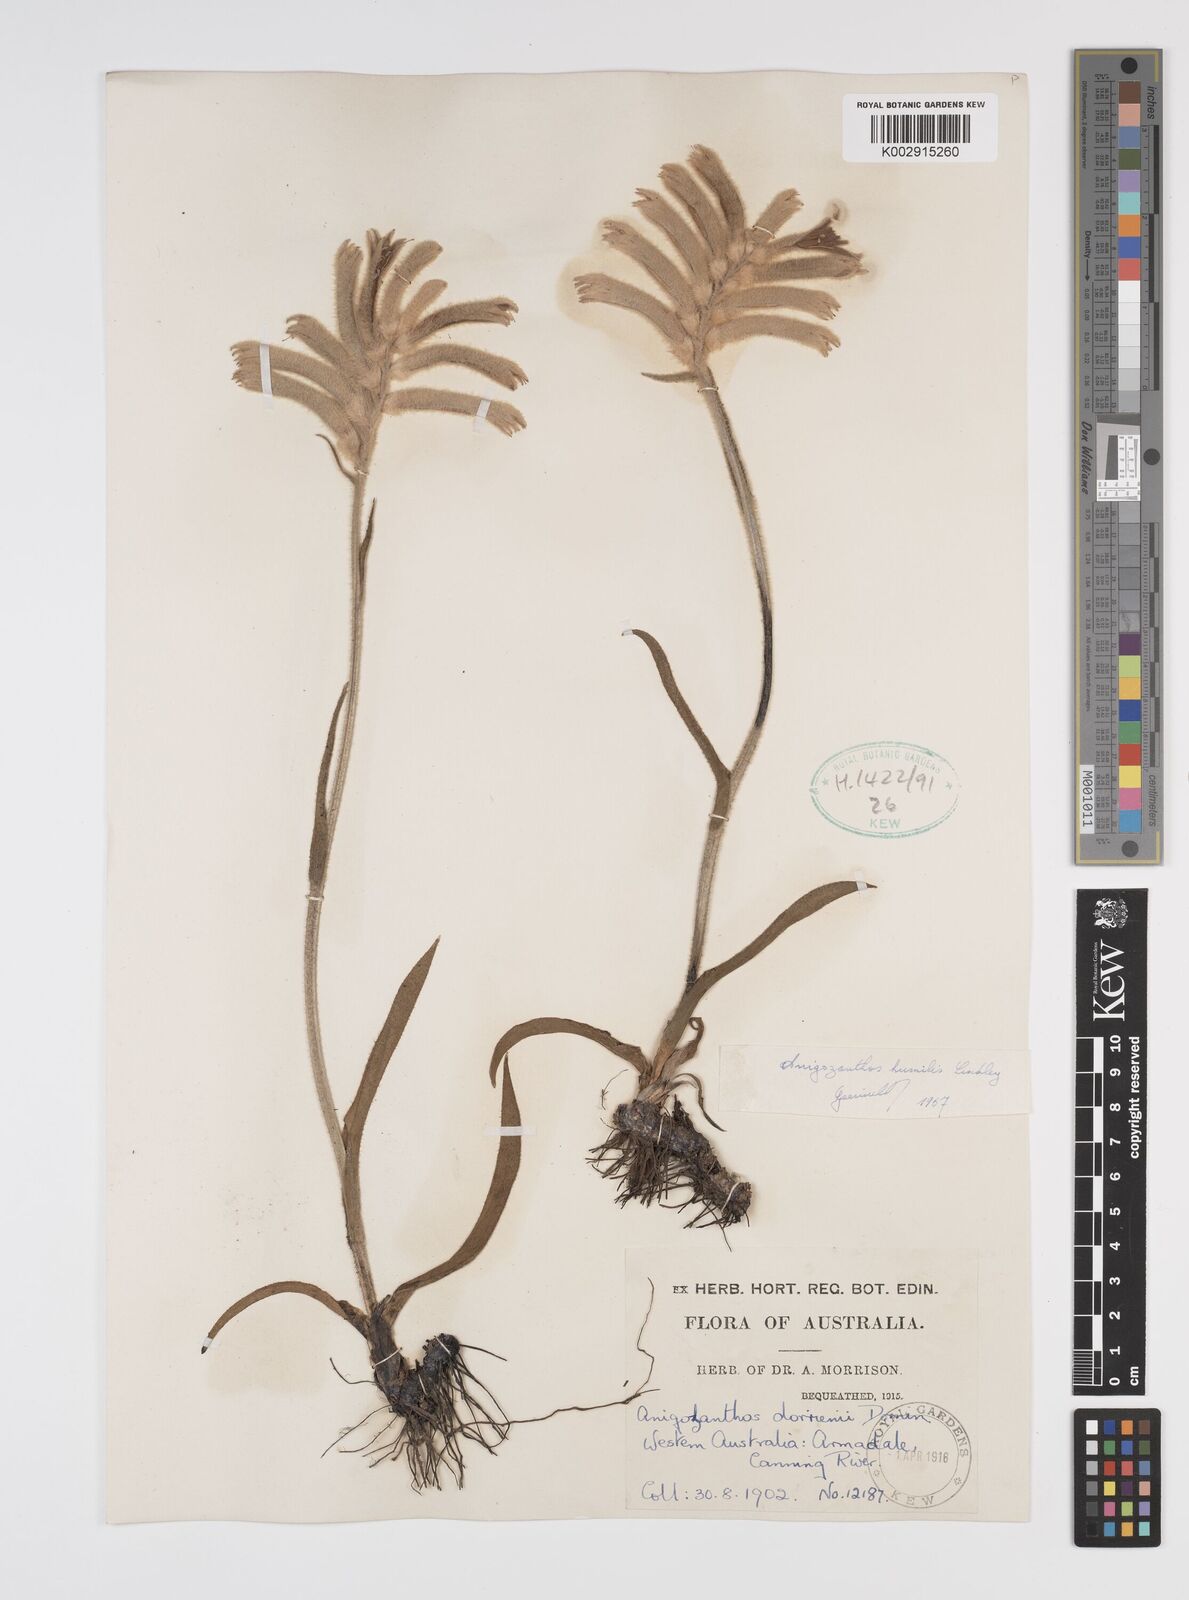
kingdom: Plantae
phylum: Tracheophyta
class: Liliopsida
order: Commelinales
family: Haemodoraceae
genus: Anigozanthos
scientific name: Anigozanthos humilis
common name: Cat's-paw
